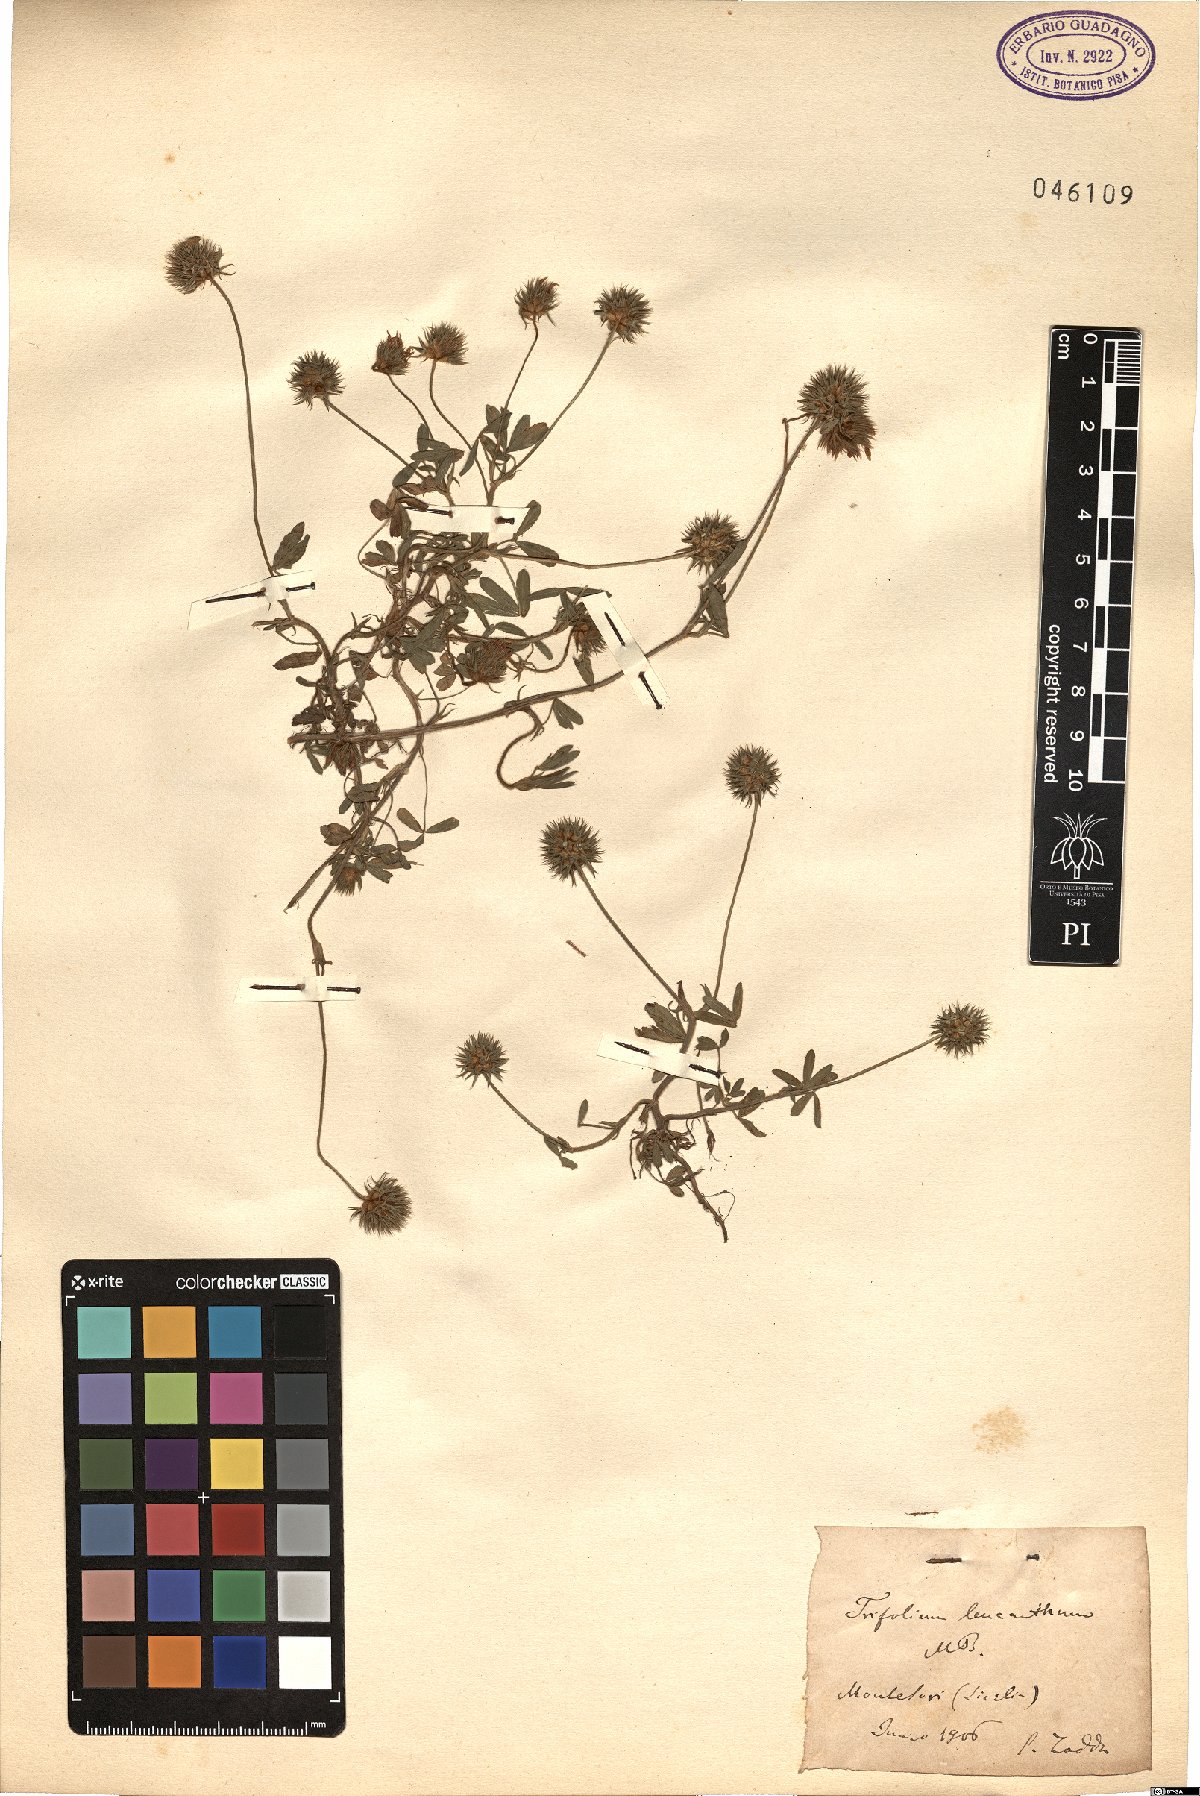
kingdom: Plantae
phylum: Tracheophyta
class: Magnoliopsida
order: Fabales
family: Fabaceae
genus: Trifolium
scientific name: Trifolium leucanthum
